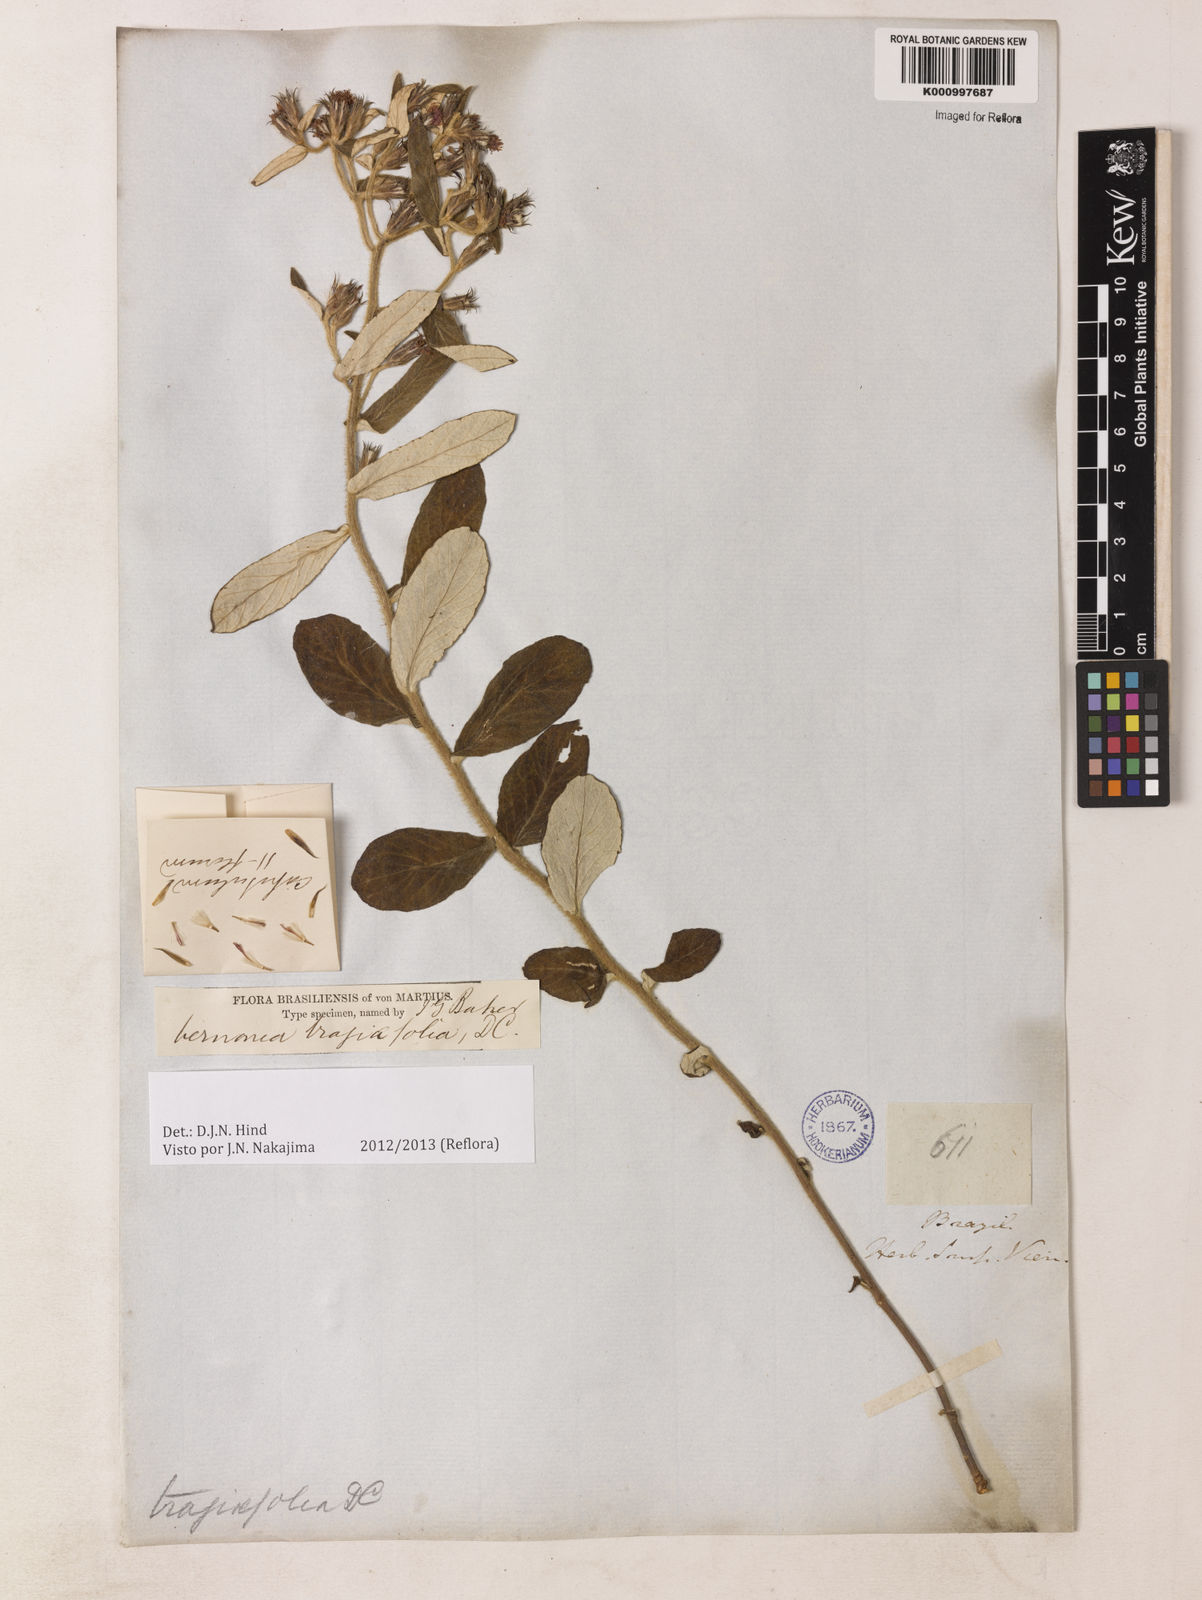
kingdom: Plantae
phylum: Tracheophyta
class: Magnoliopsida
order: Asterales
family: Asteraceae
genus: Vernonia
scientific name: Vernonia
